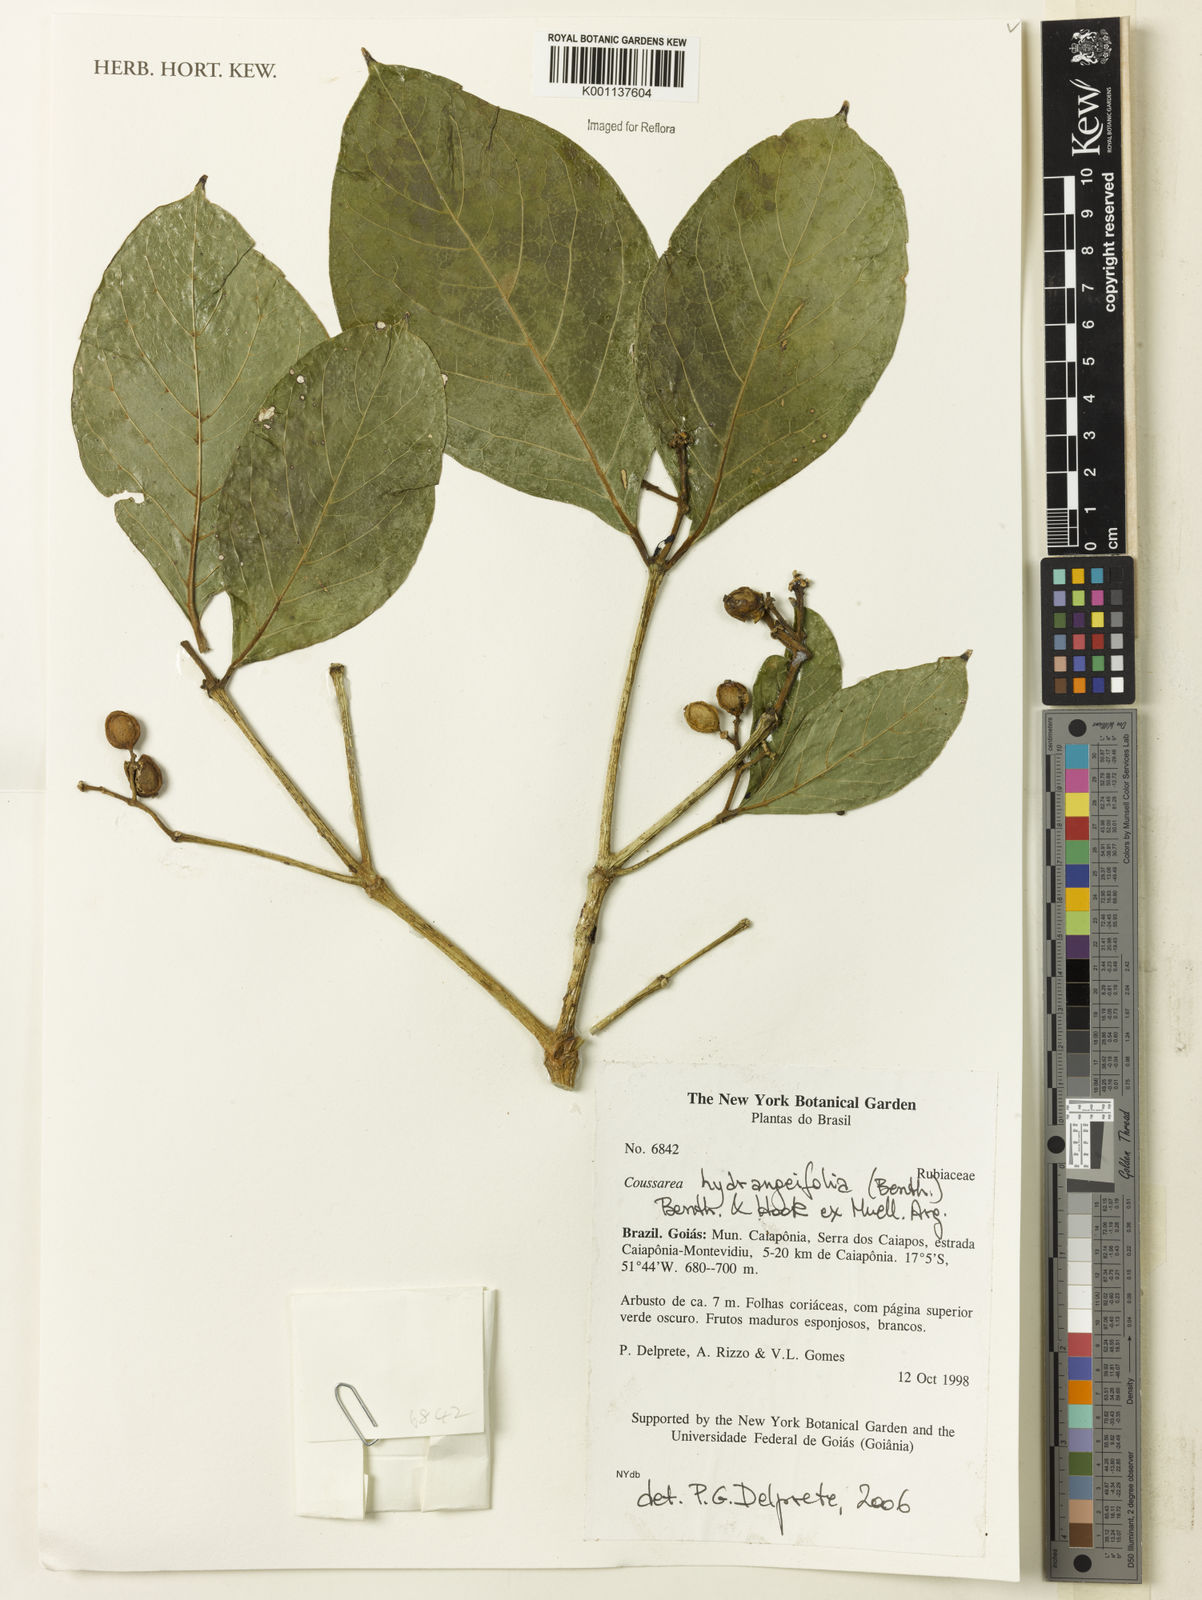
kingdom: Plantae
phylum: Tracheophyta
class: Magnoliopsida
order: Gentianales
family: Rubiaceae
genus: Coussarea
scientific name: Coussarea
